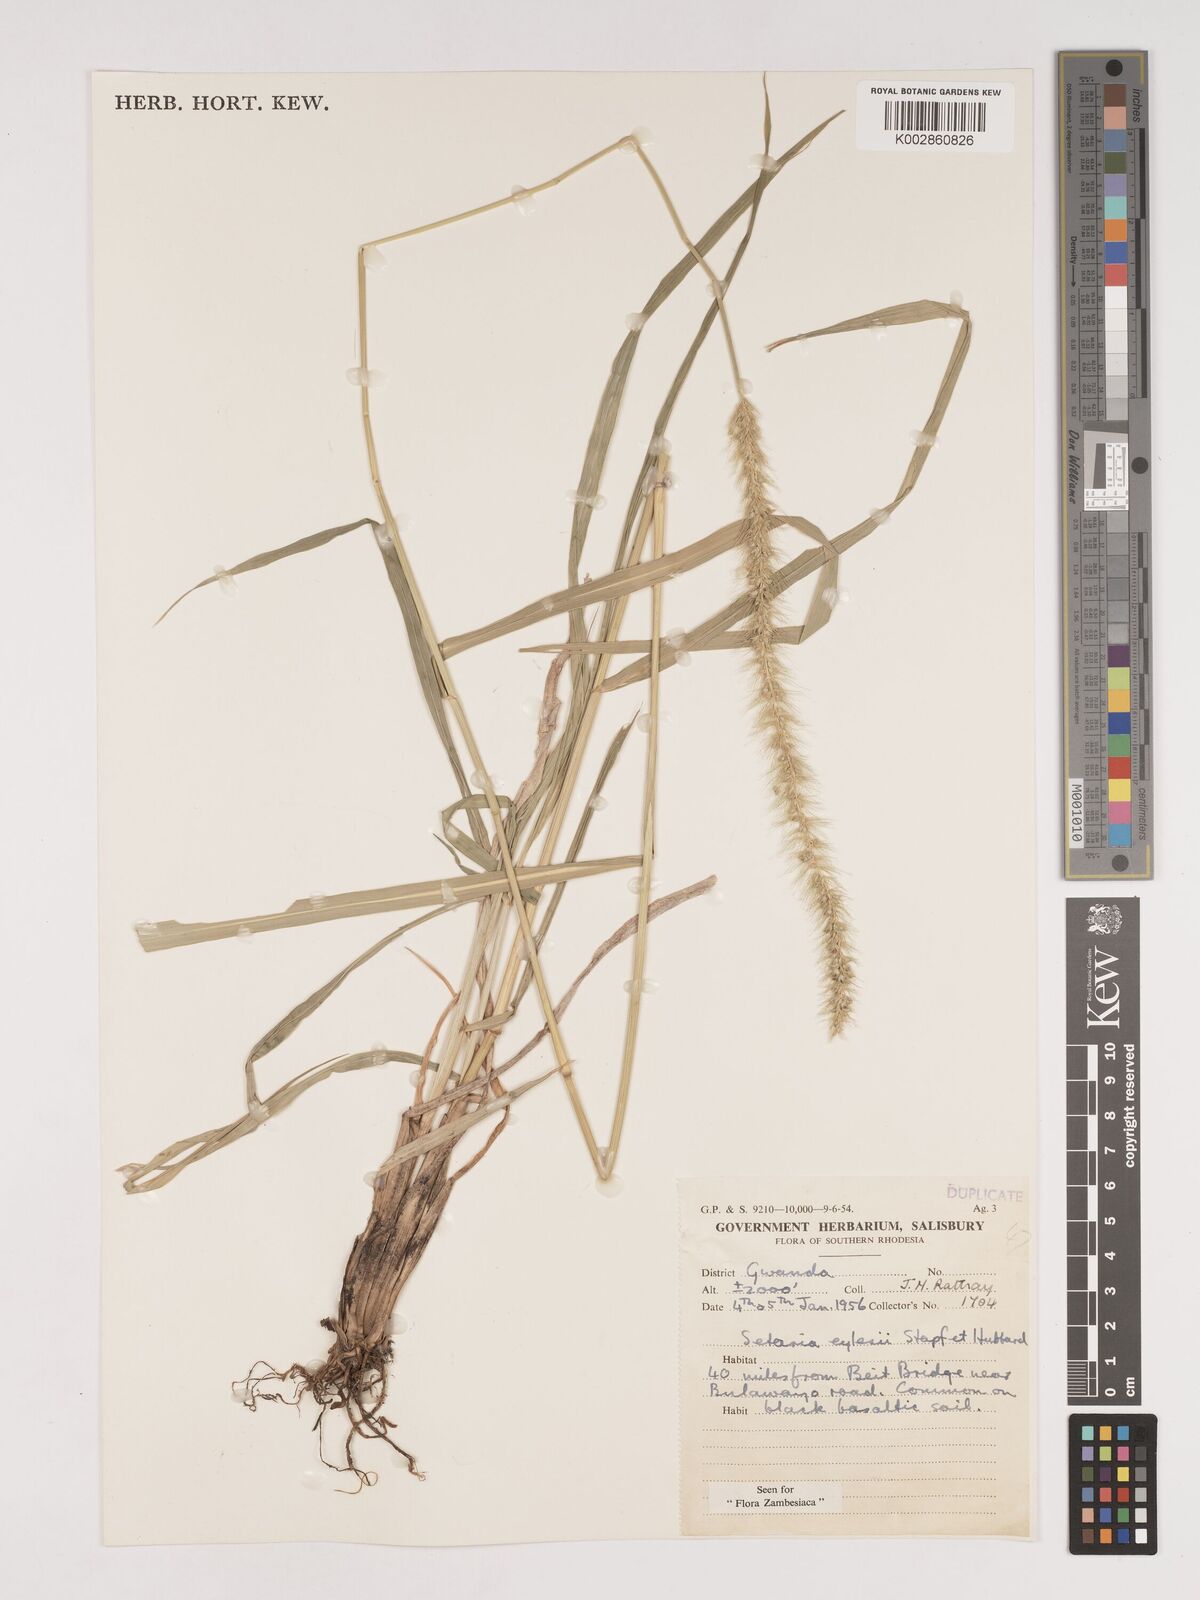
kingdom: Plantae
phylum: Tracheophyta
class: Liliopsida
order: Poales
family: Poaceae
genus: Setaria
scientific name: Setaria incrassata
